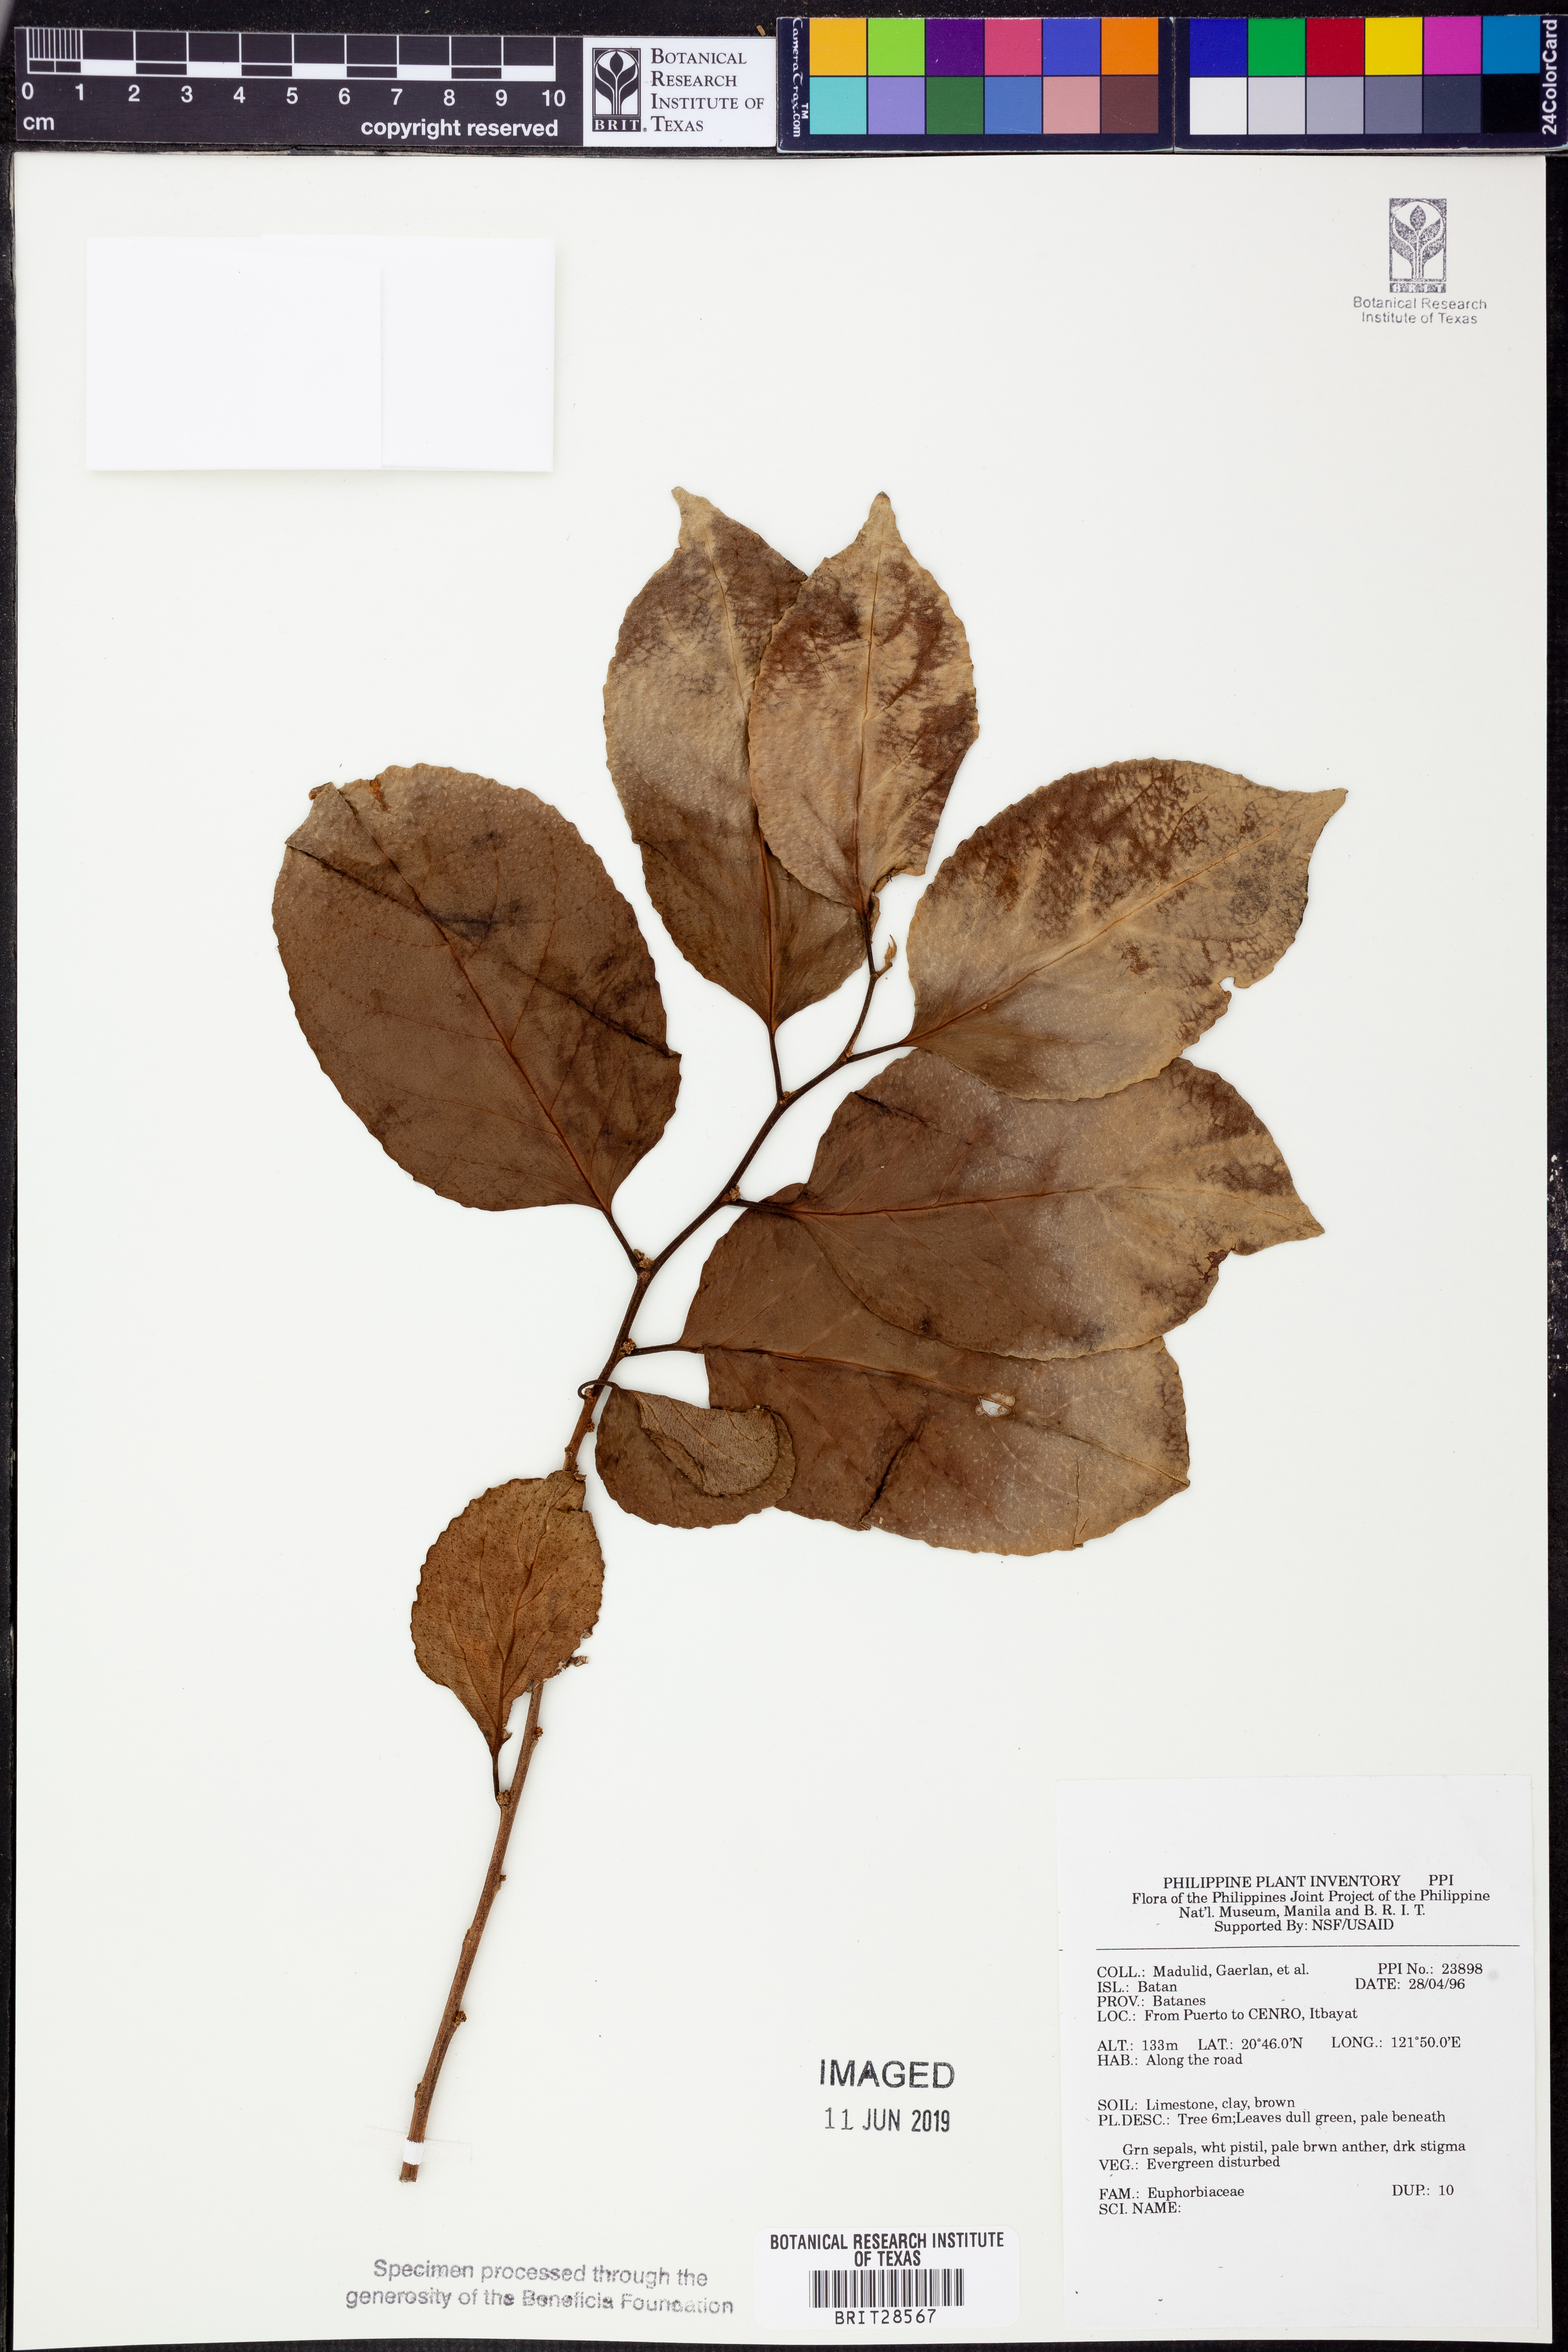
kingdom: Plantae
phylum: Tracheophyta
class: Magnoliopsida
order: Malpighiales
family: Euphorbiaceae
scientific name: Euphorbiaceae
